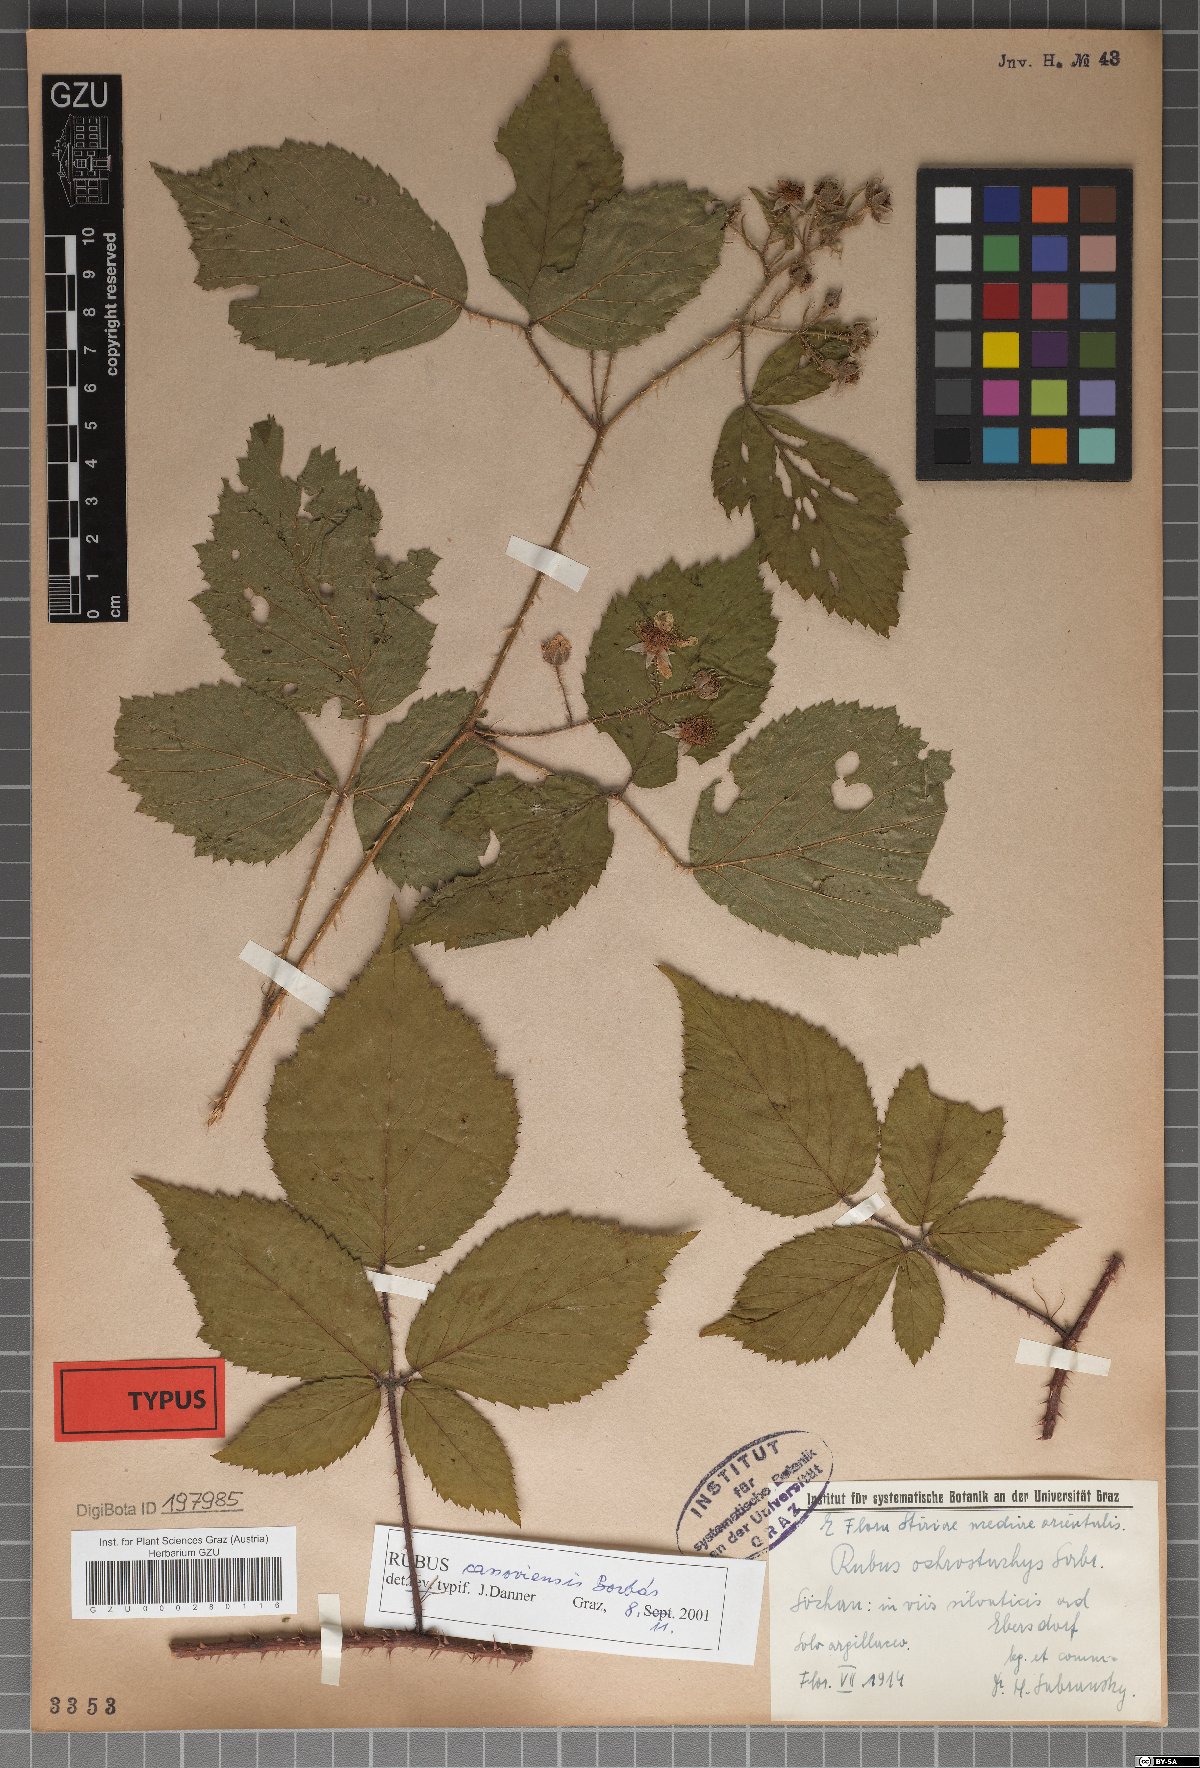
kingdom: Plantae
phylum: Tracheophyta
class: Magnoliopsida
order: Rosales
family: Rosaceae
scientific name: Rosaceae
